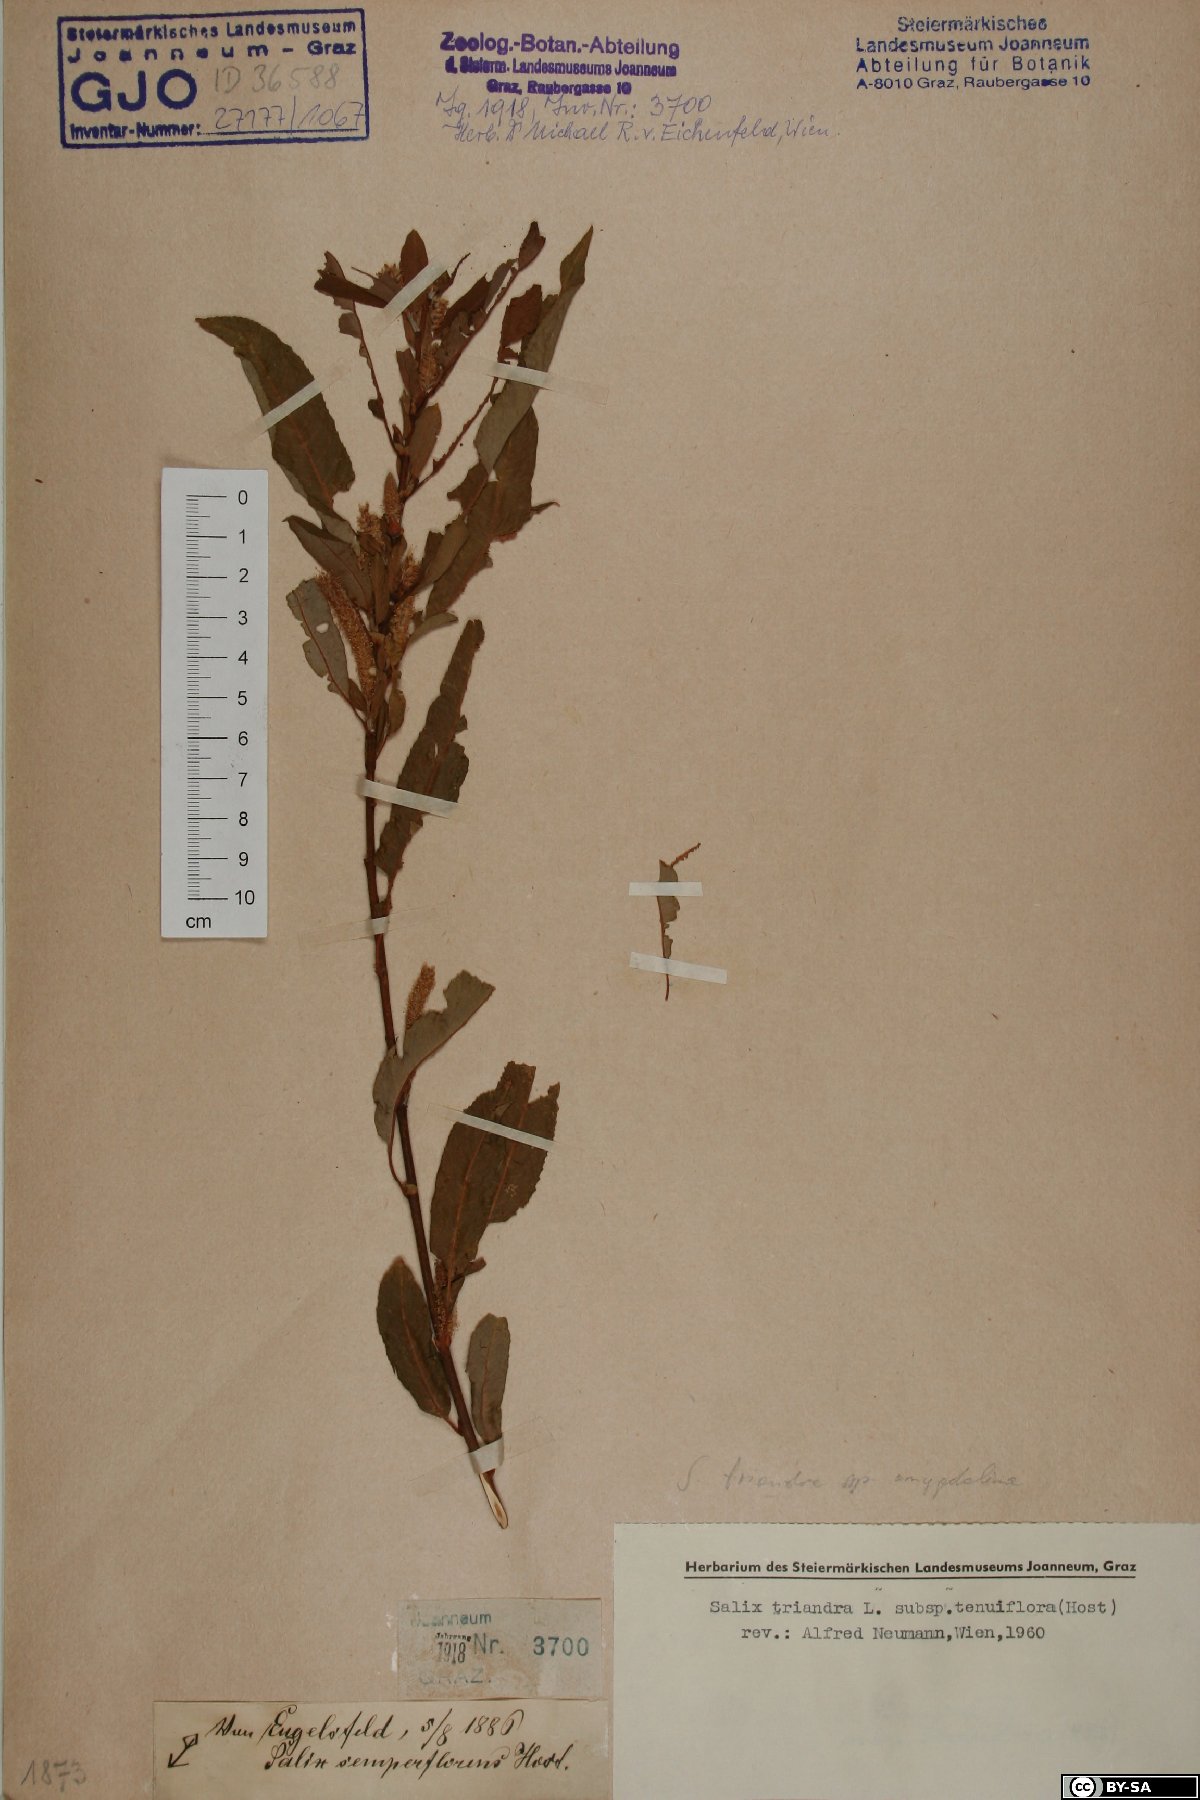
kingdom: Plantae
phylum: Tracheophyta
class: Magnoliopsida
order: Malpighiales
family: Salicaceae
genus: Salix
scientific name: Salix triandra
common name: Almond willow
